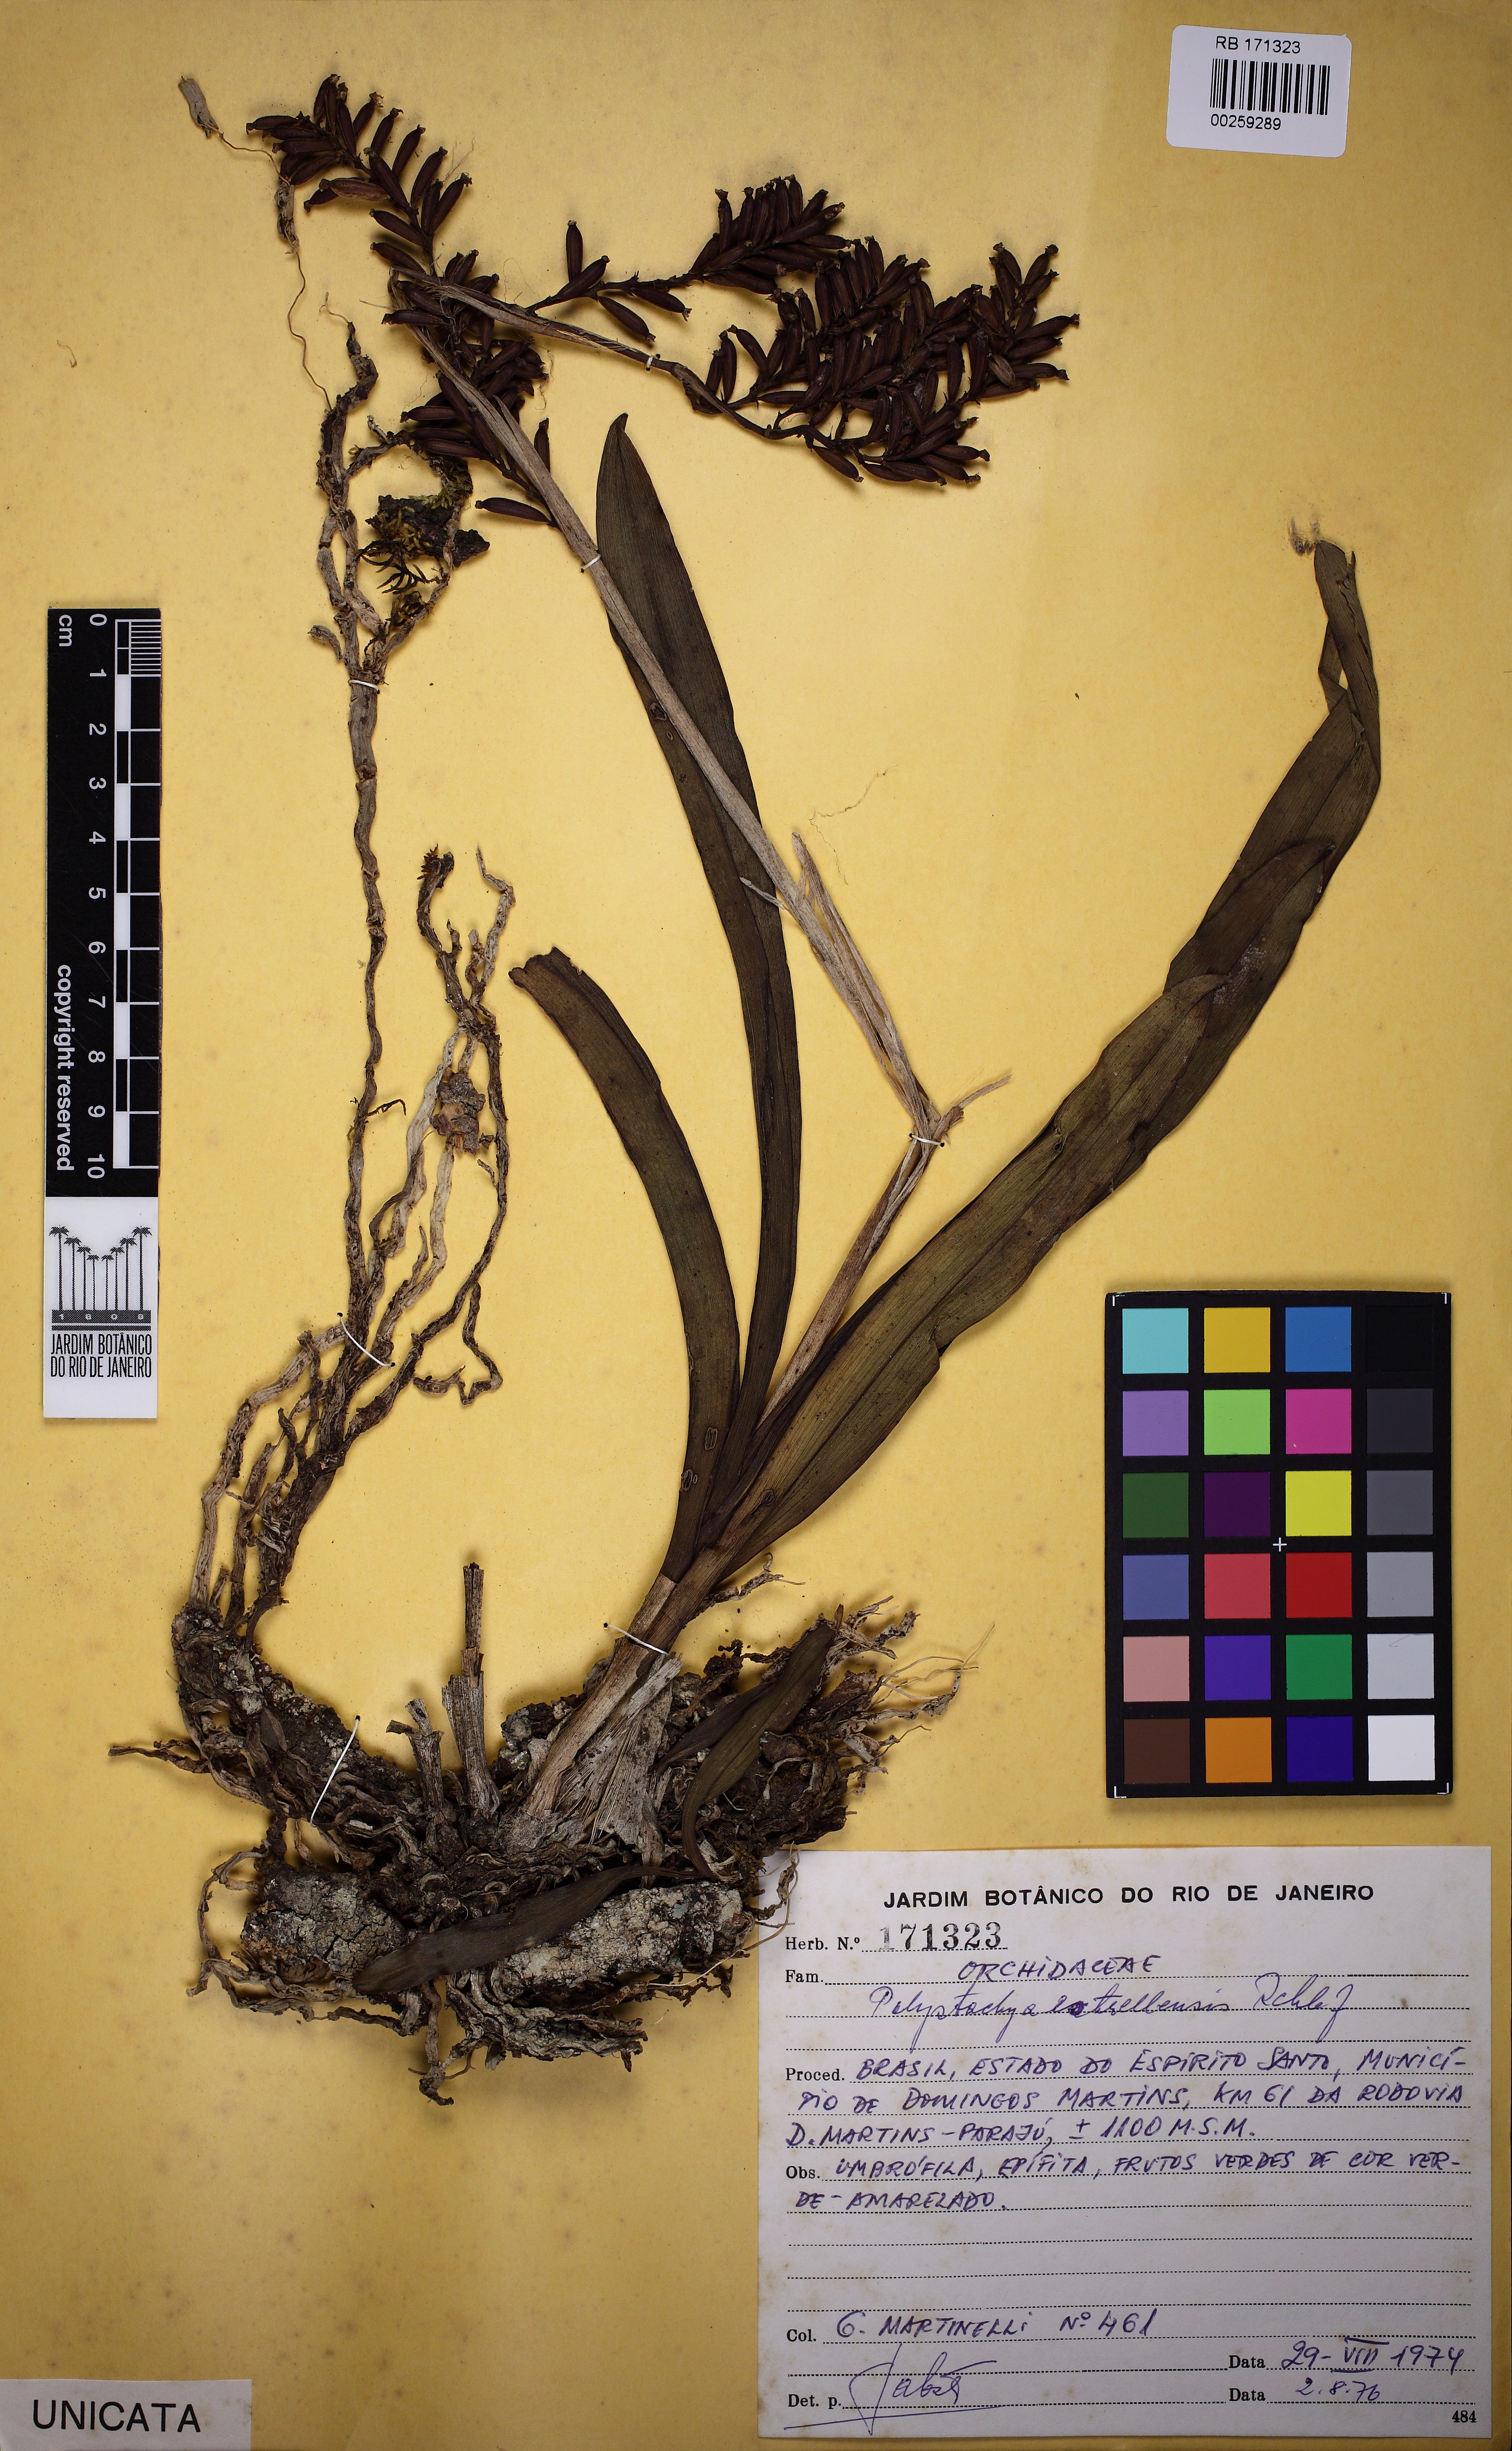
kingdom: Plantae
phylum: Tracheophyta
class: Liliopsida
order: Asparagales
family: Orchidaceae
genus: Polystachya
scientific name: Polystachya foliosa
